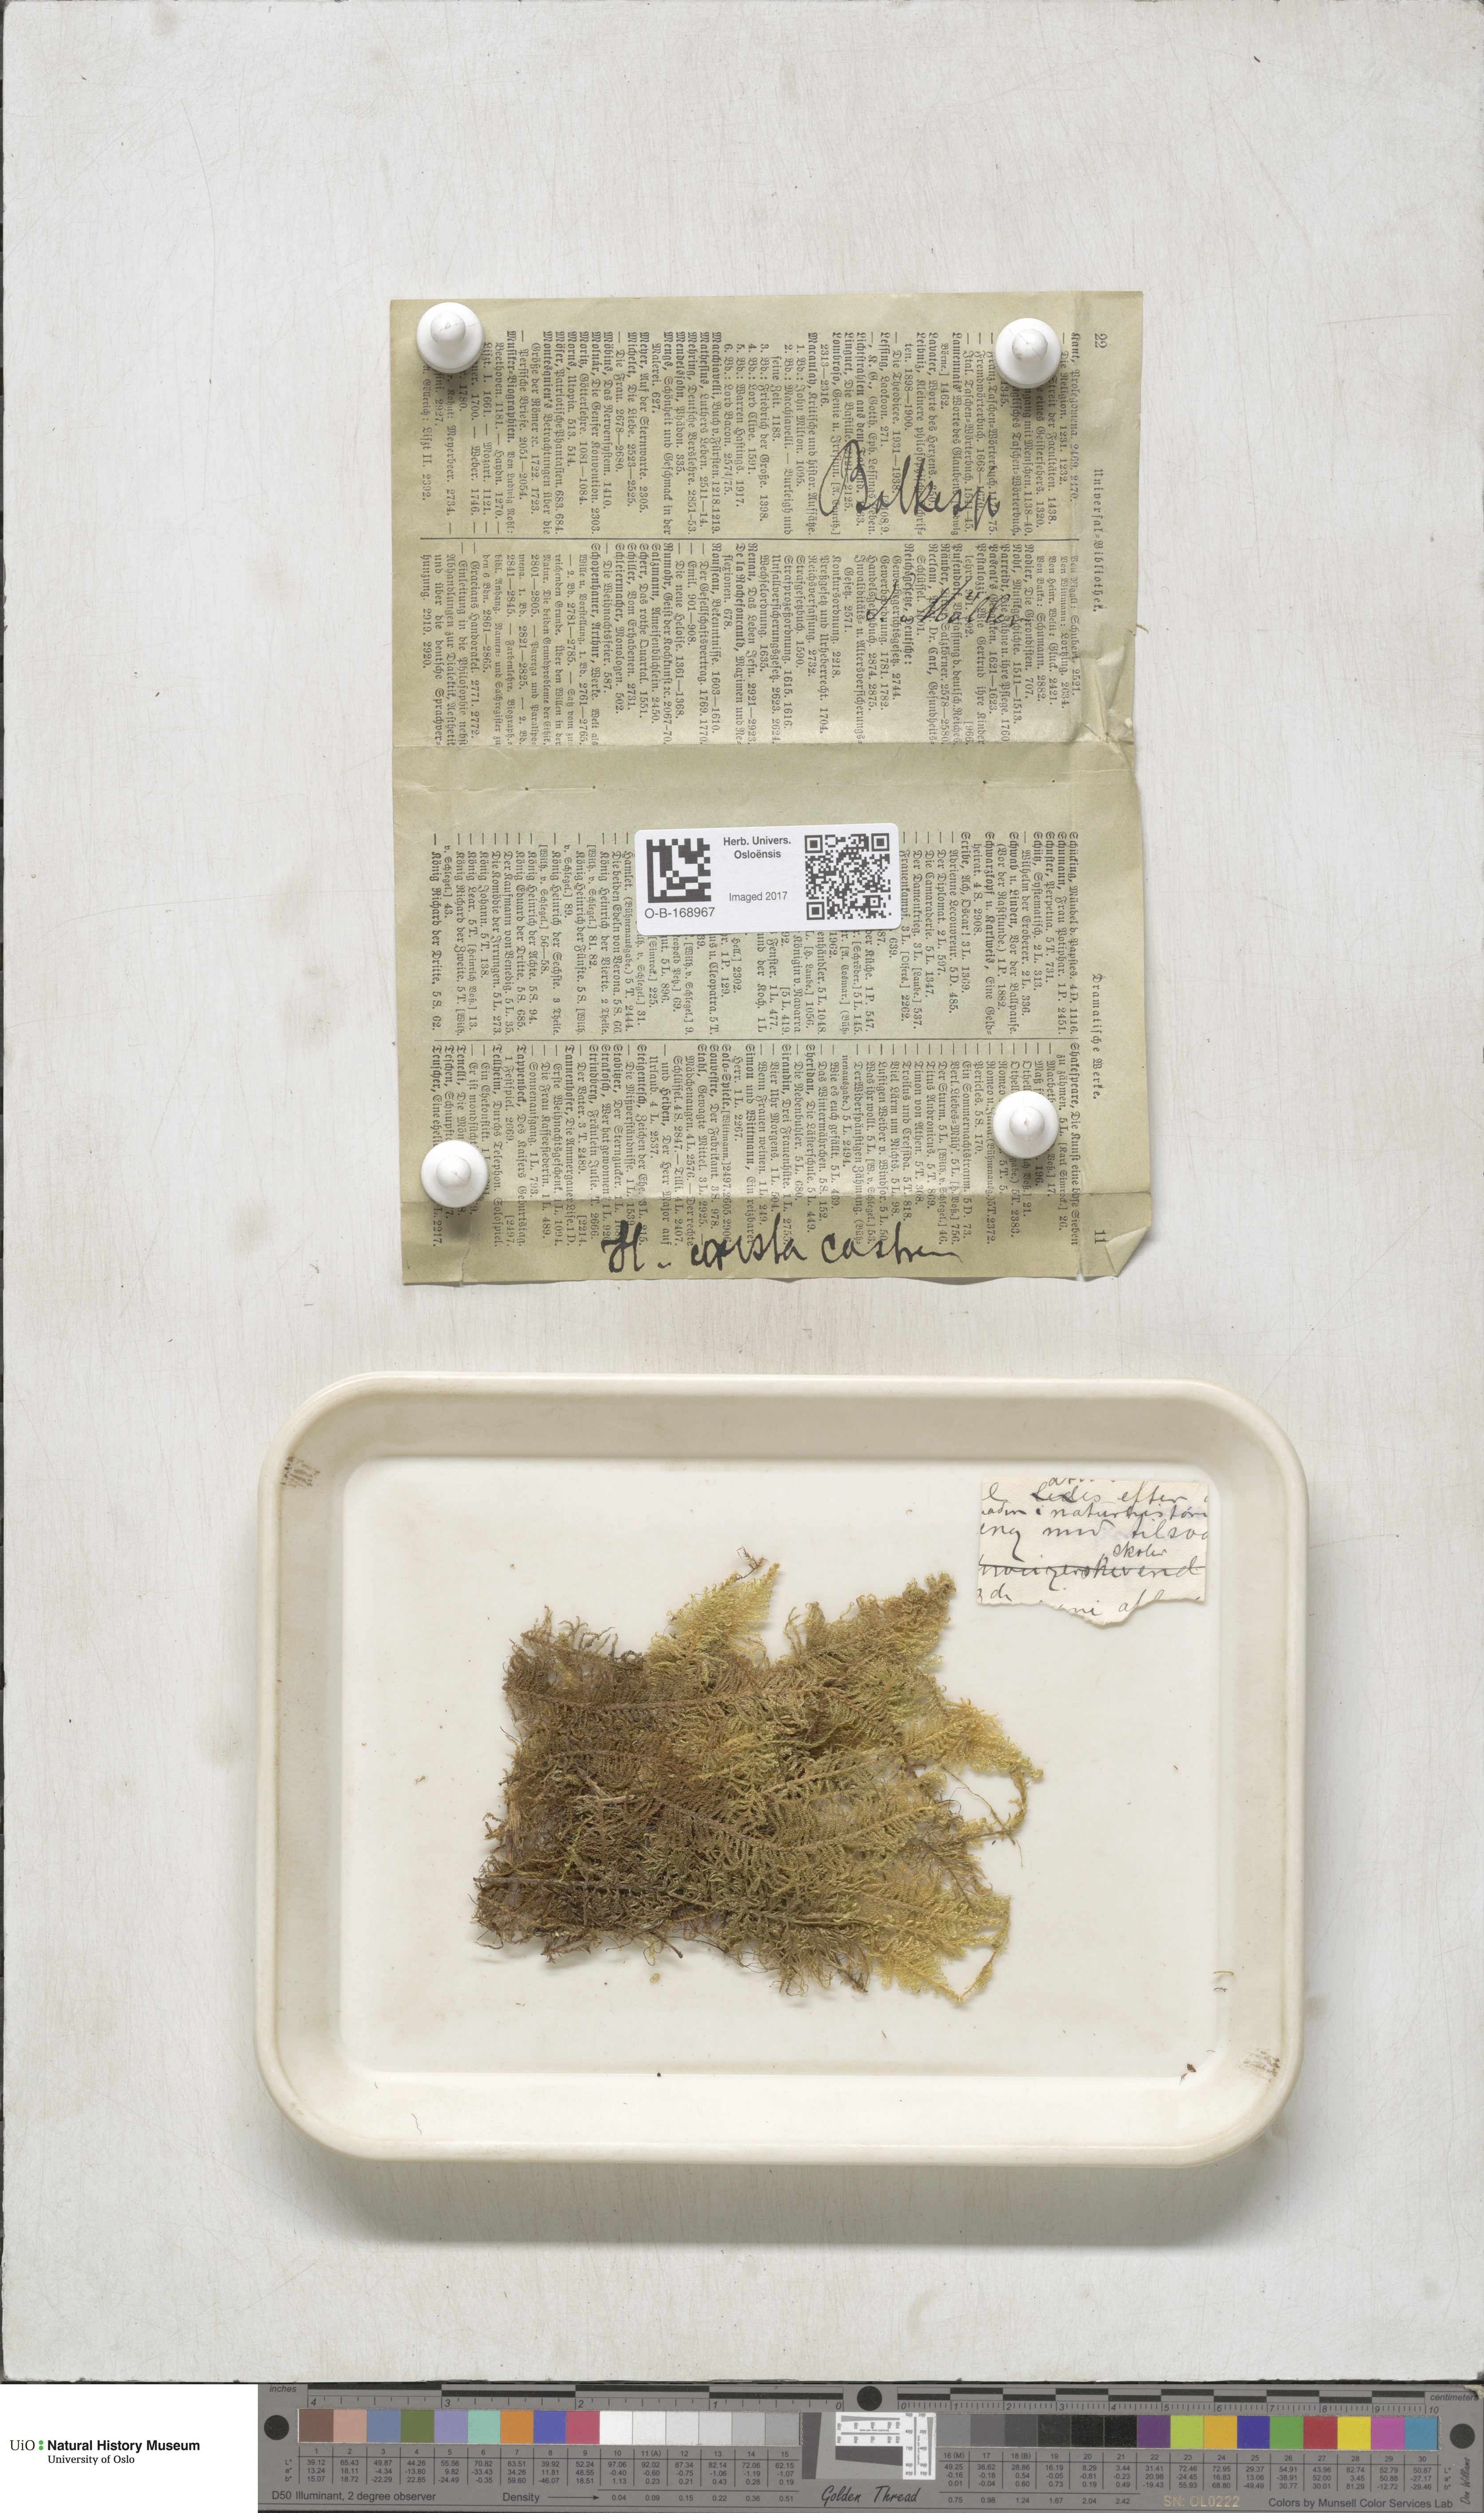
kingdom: Plantae
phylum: Bryophyta
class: Bryopsida
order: Hypnales
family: Pylaisiaceae
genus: Ptilium
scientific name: Ptilium crista-castrensis
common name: Knight's plume moss
